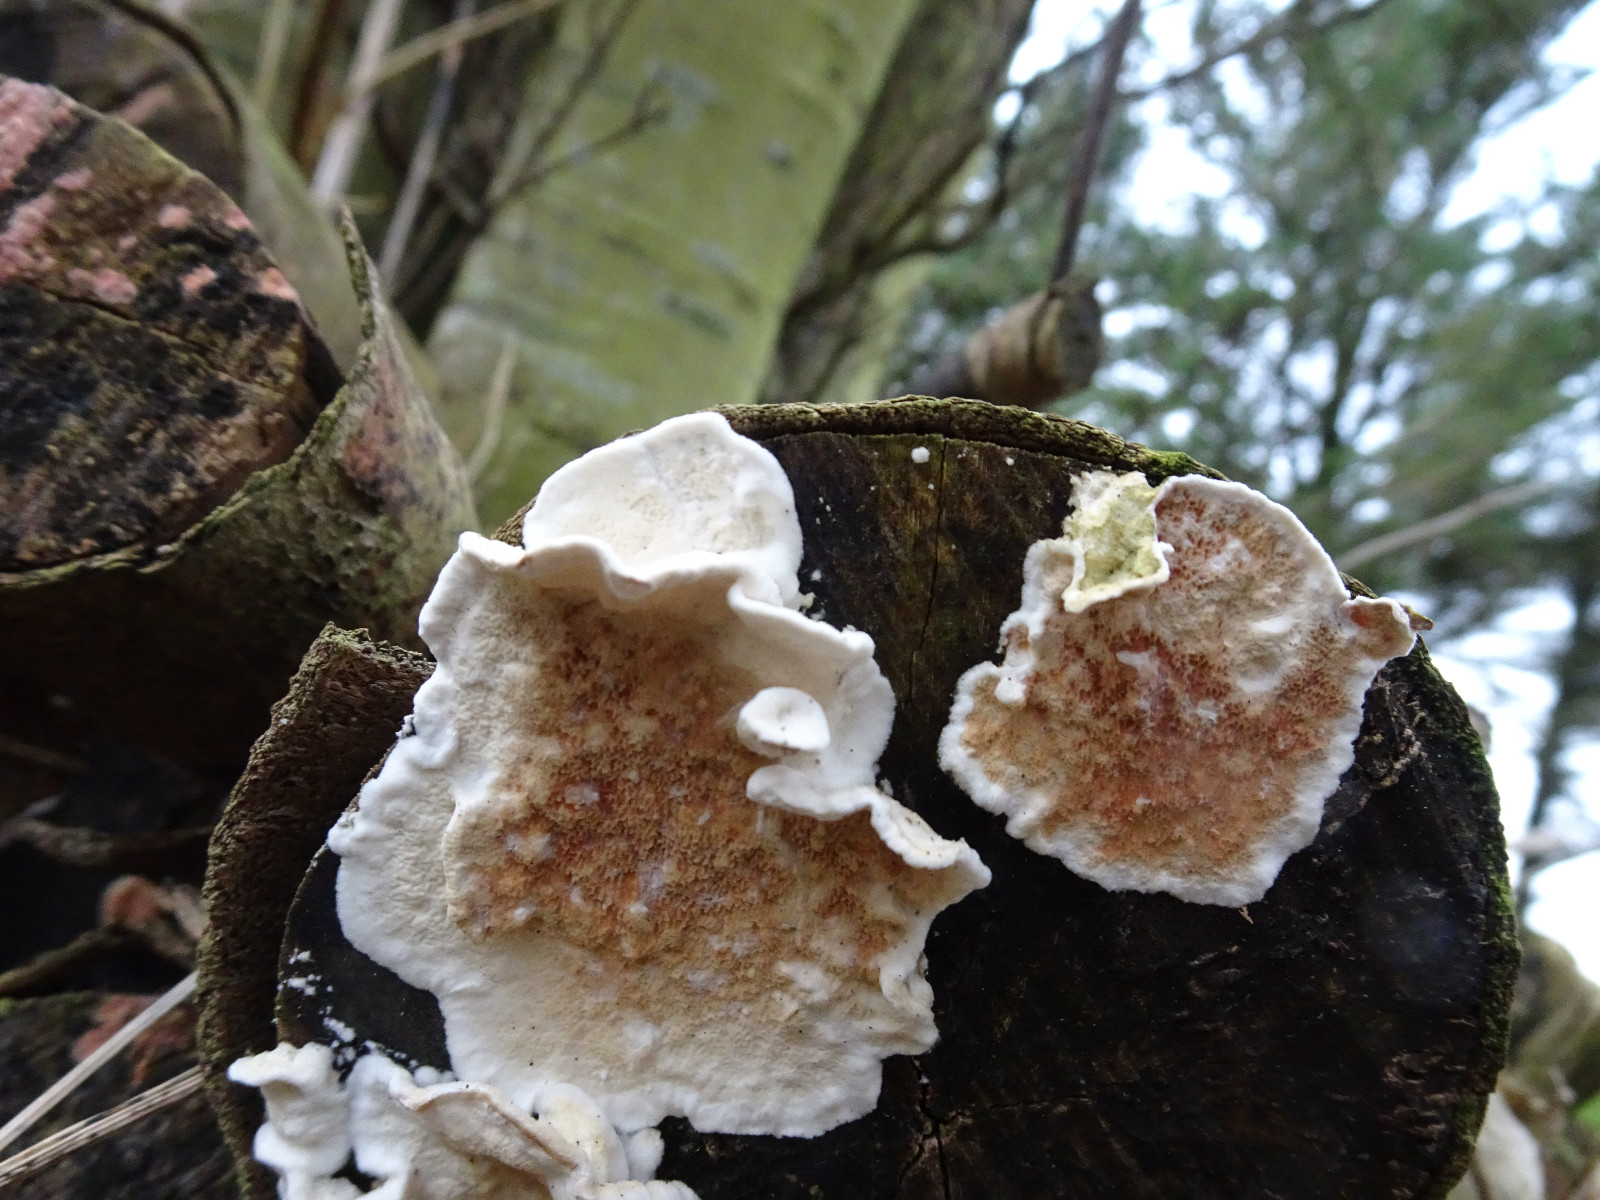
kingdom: Fungi
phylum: Basidiomycota
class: Agaricomycetes
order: Polyporales
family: Irpicaceae
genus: Byssomerulius
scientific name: Byssomerulius corium
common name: læder-åresvamp
